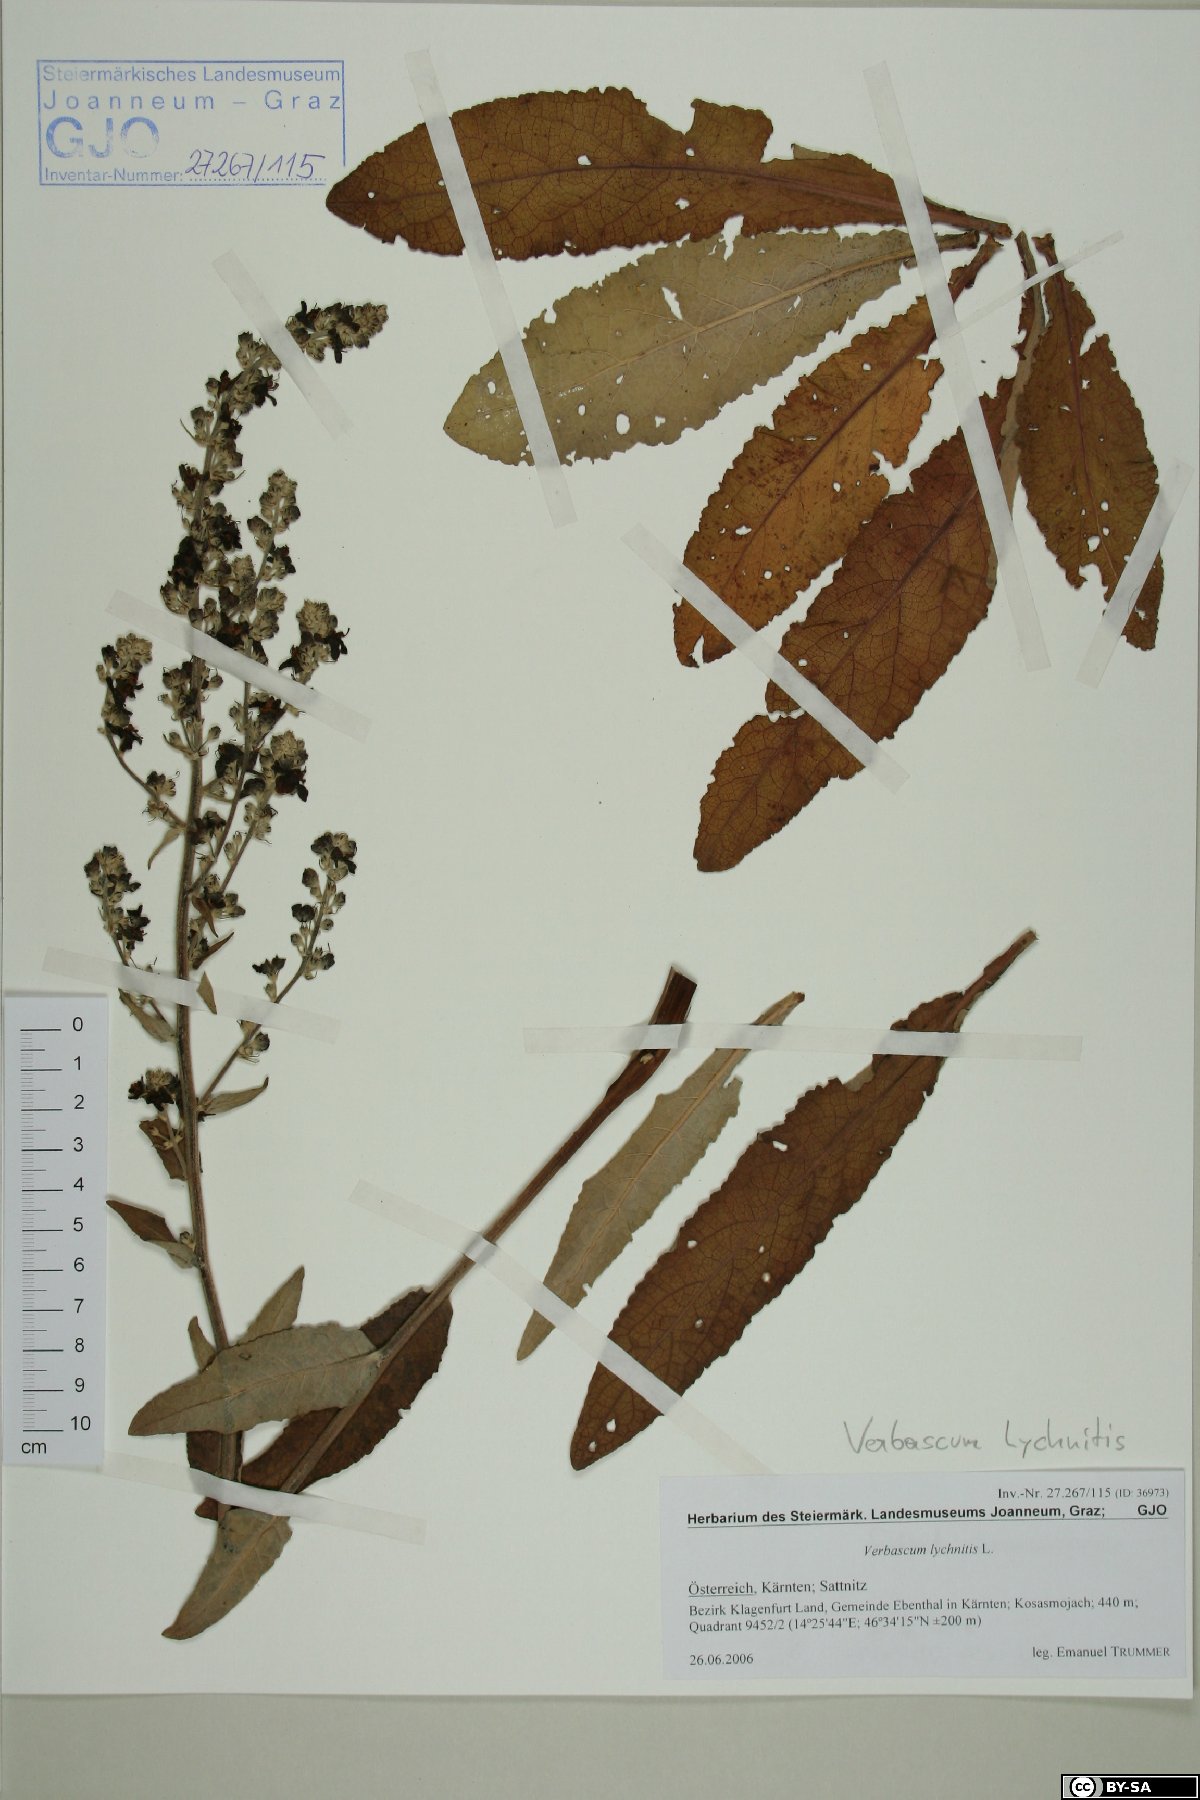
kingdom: Plantae
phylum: Tracheophyta
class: Magnoliopsida
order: Lamiales
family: Scrophulariaceae
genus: Verbascum
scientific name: Verbascum lychnitis
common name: White mullein
